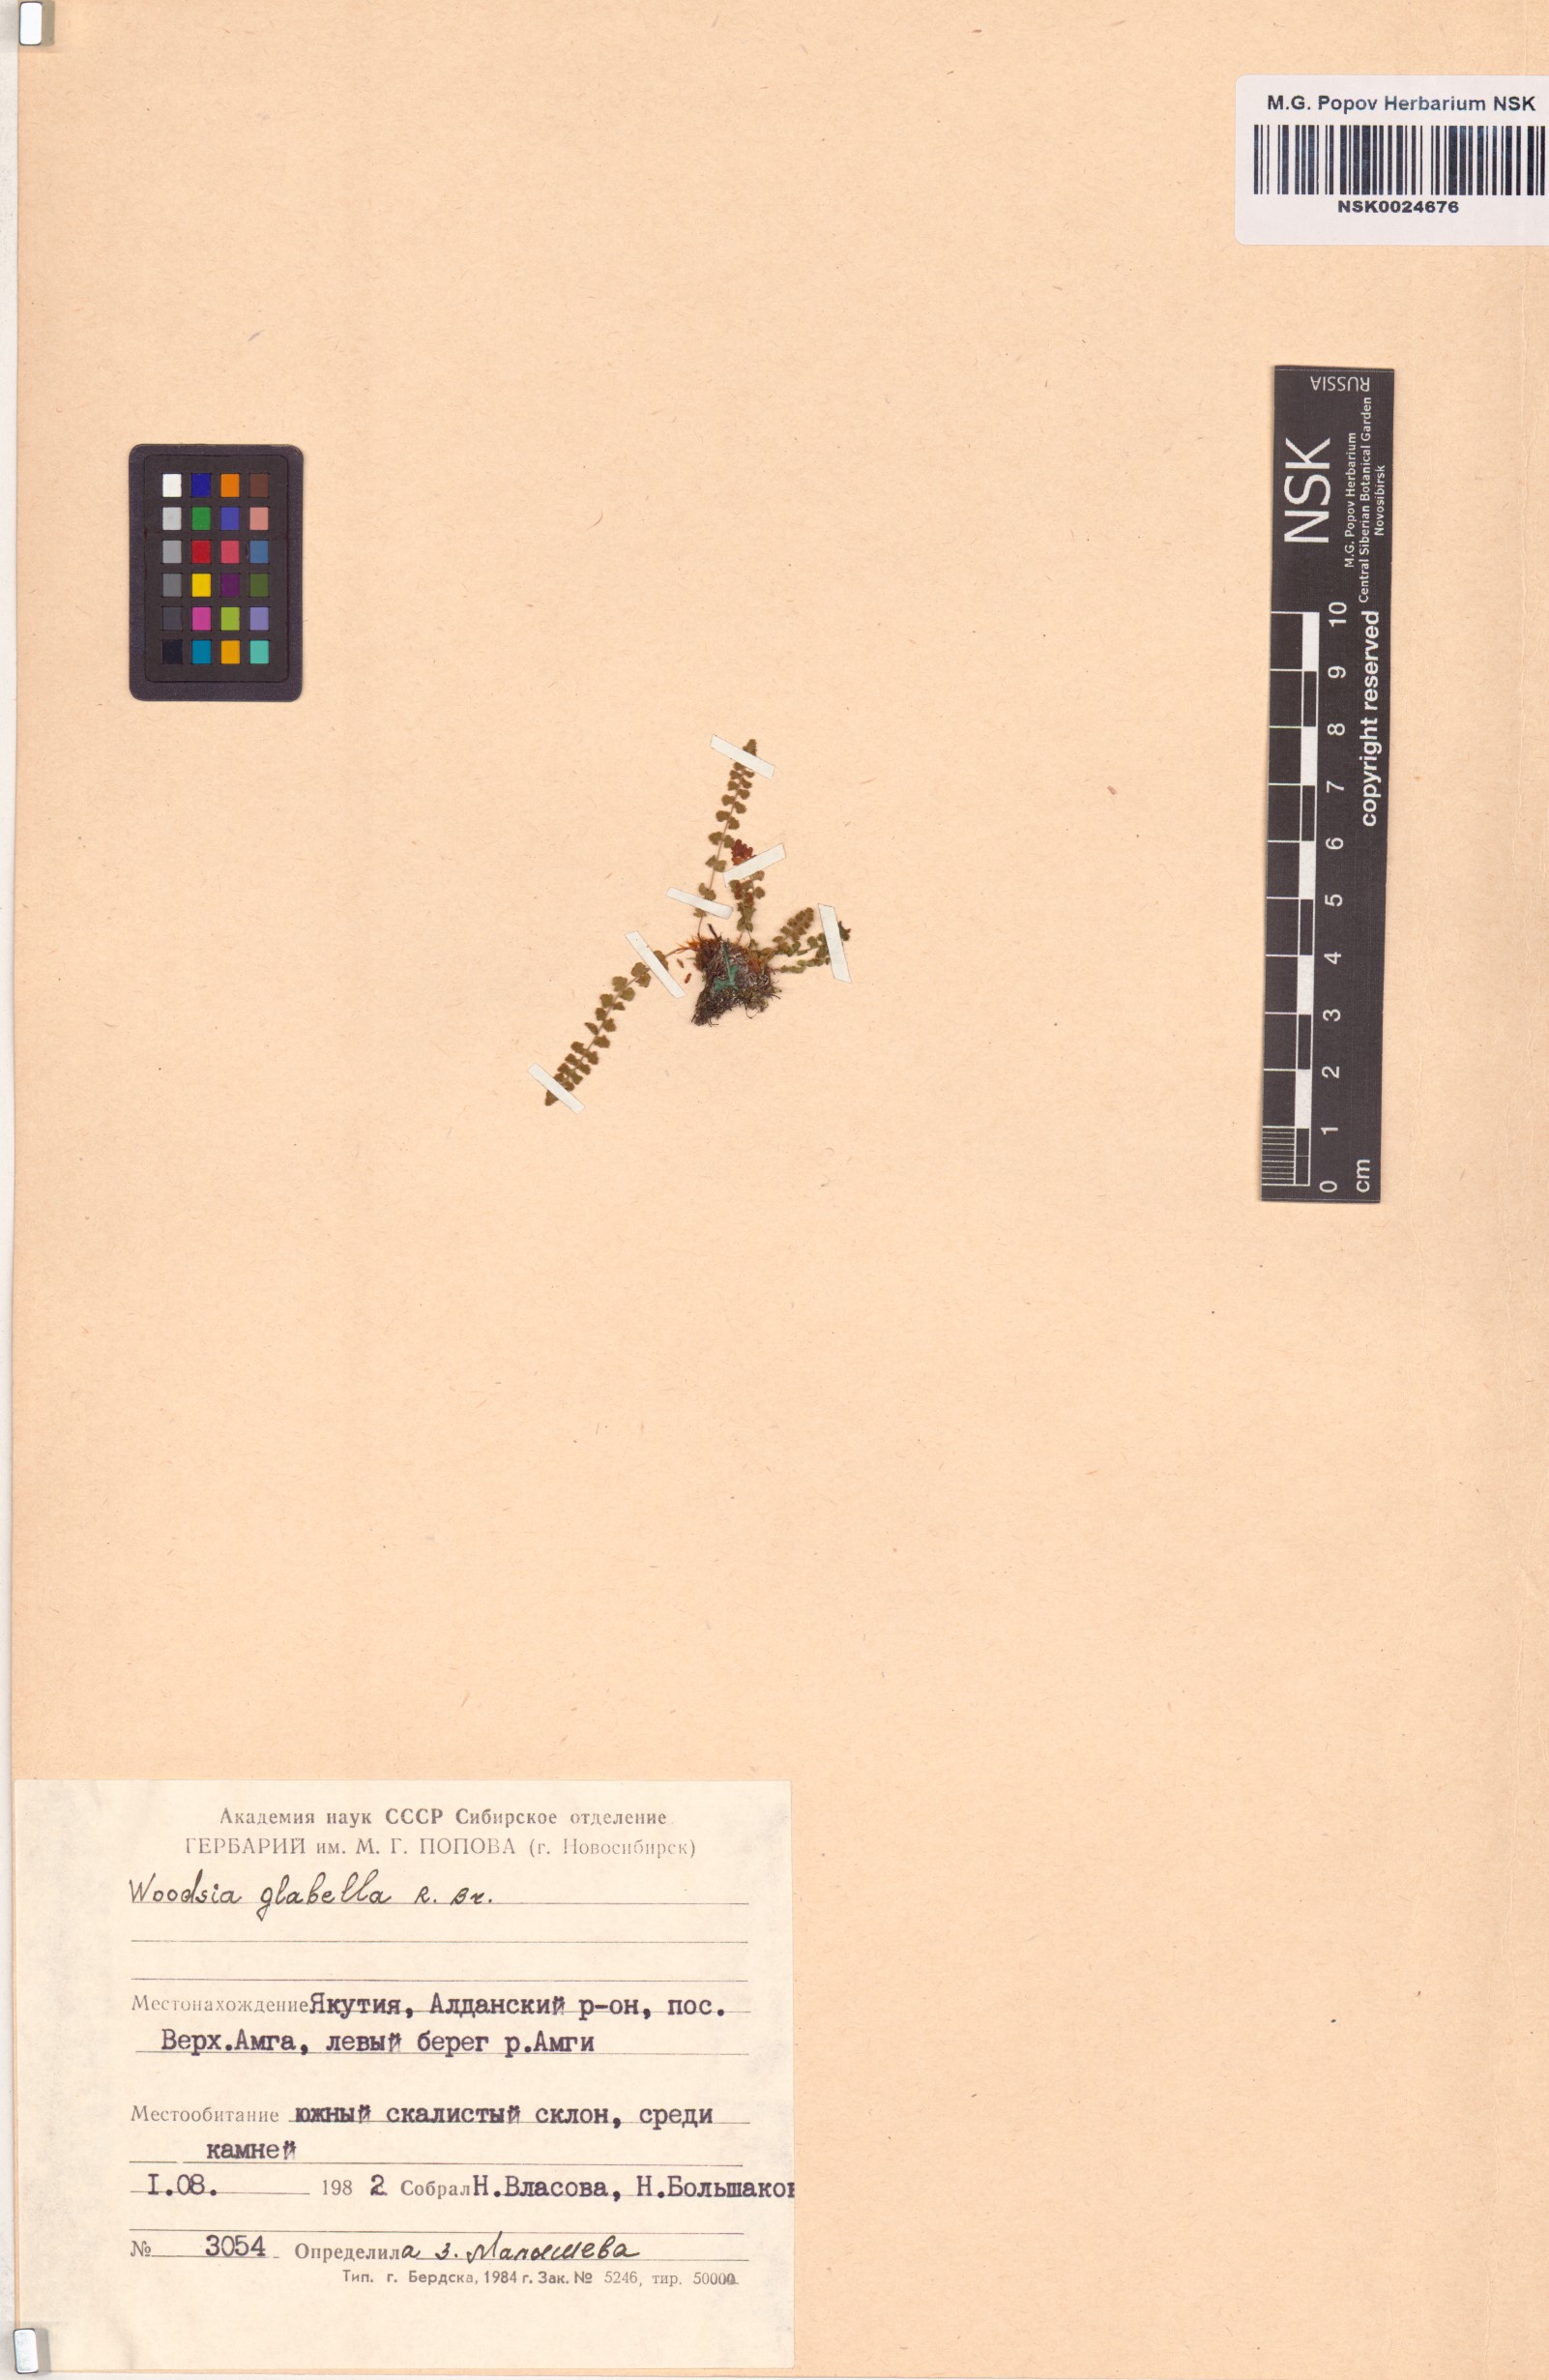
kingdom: Plantae
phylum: Tracheophyta
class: Polypodiopsida
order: Polypodiales
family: Woodsiaceae
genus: Woodsia
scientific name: Woodsia glabella
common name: Smooth woodsia
